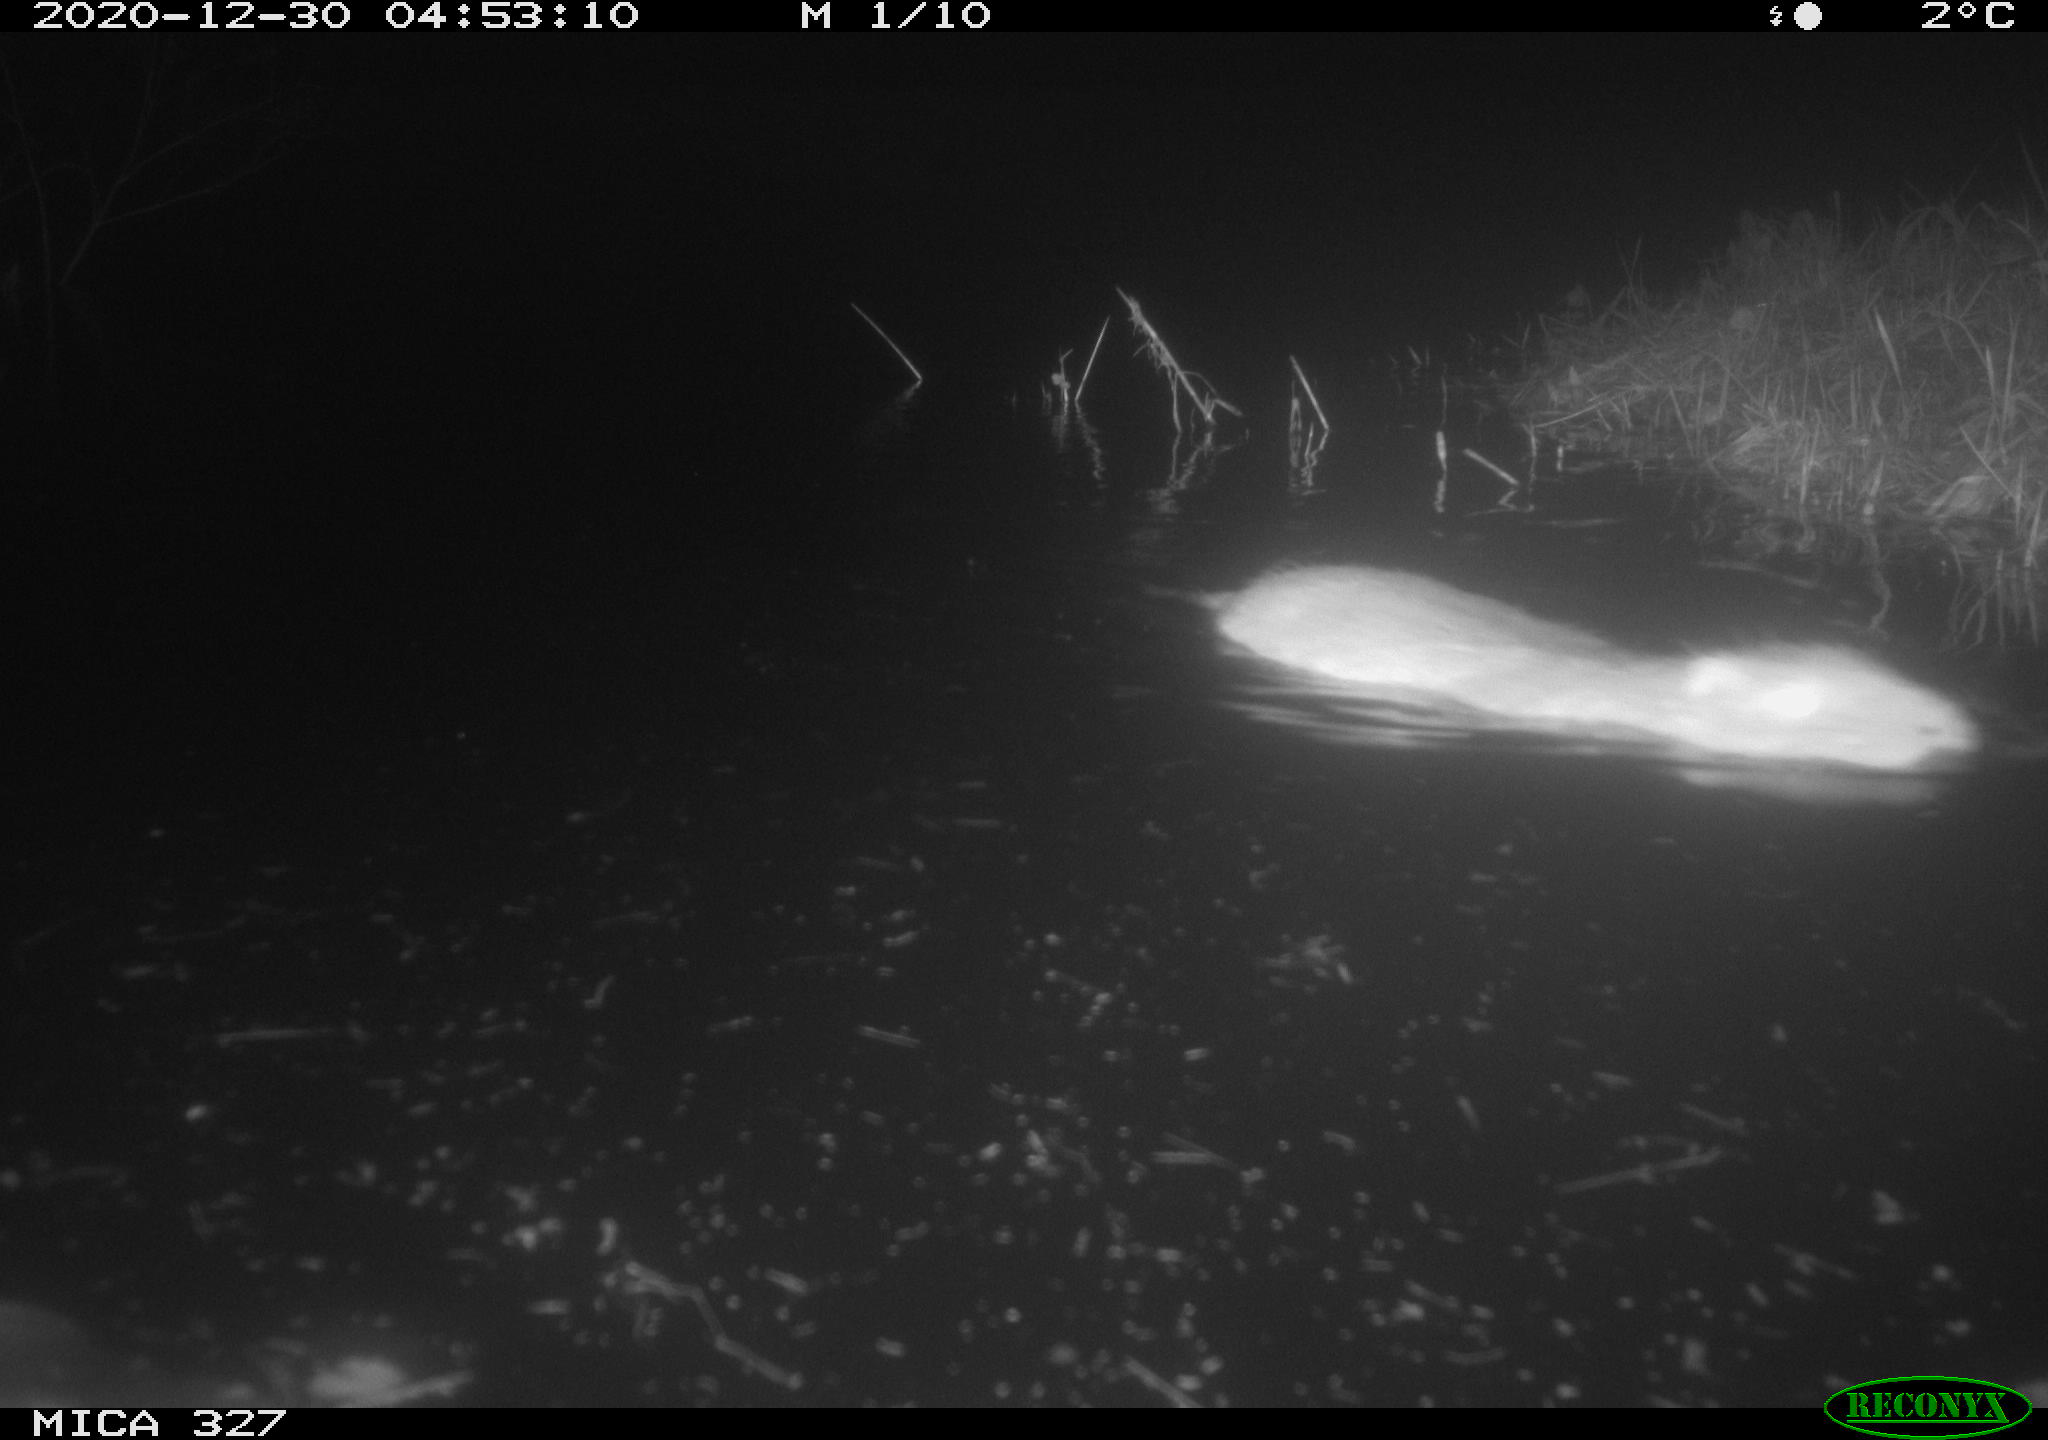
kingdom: Animalia
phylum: Chordata
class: Mammalia
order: Rodentia
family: Myocastoridae
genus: Myocastor
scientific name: Myocastor coypus
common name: Coypu
